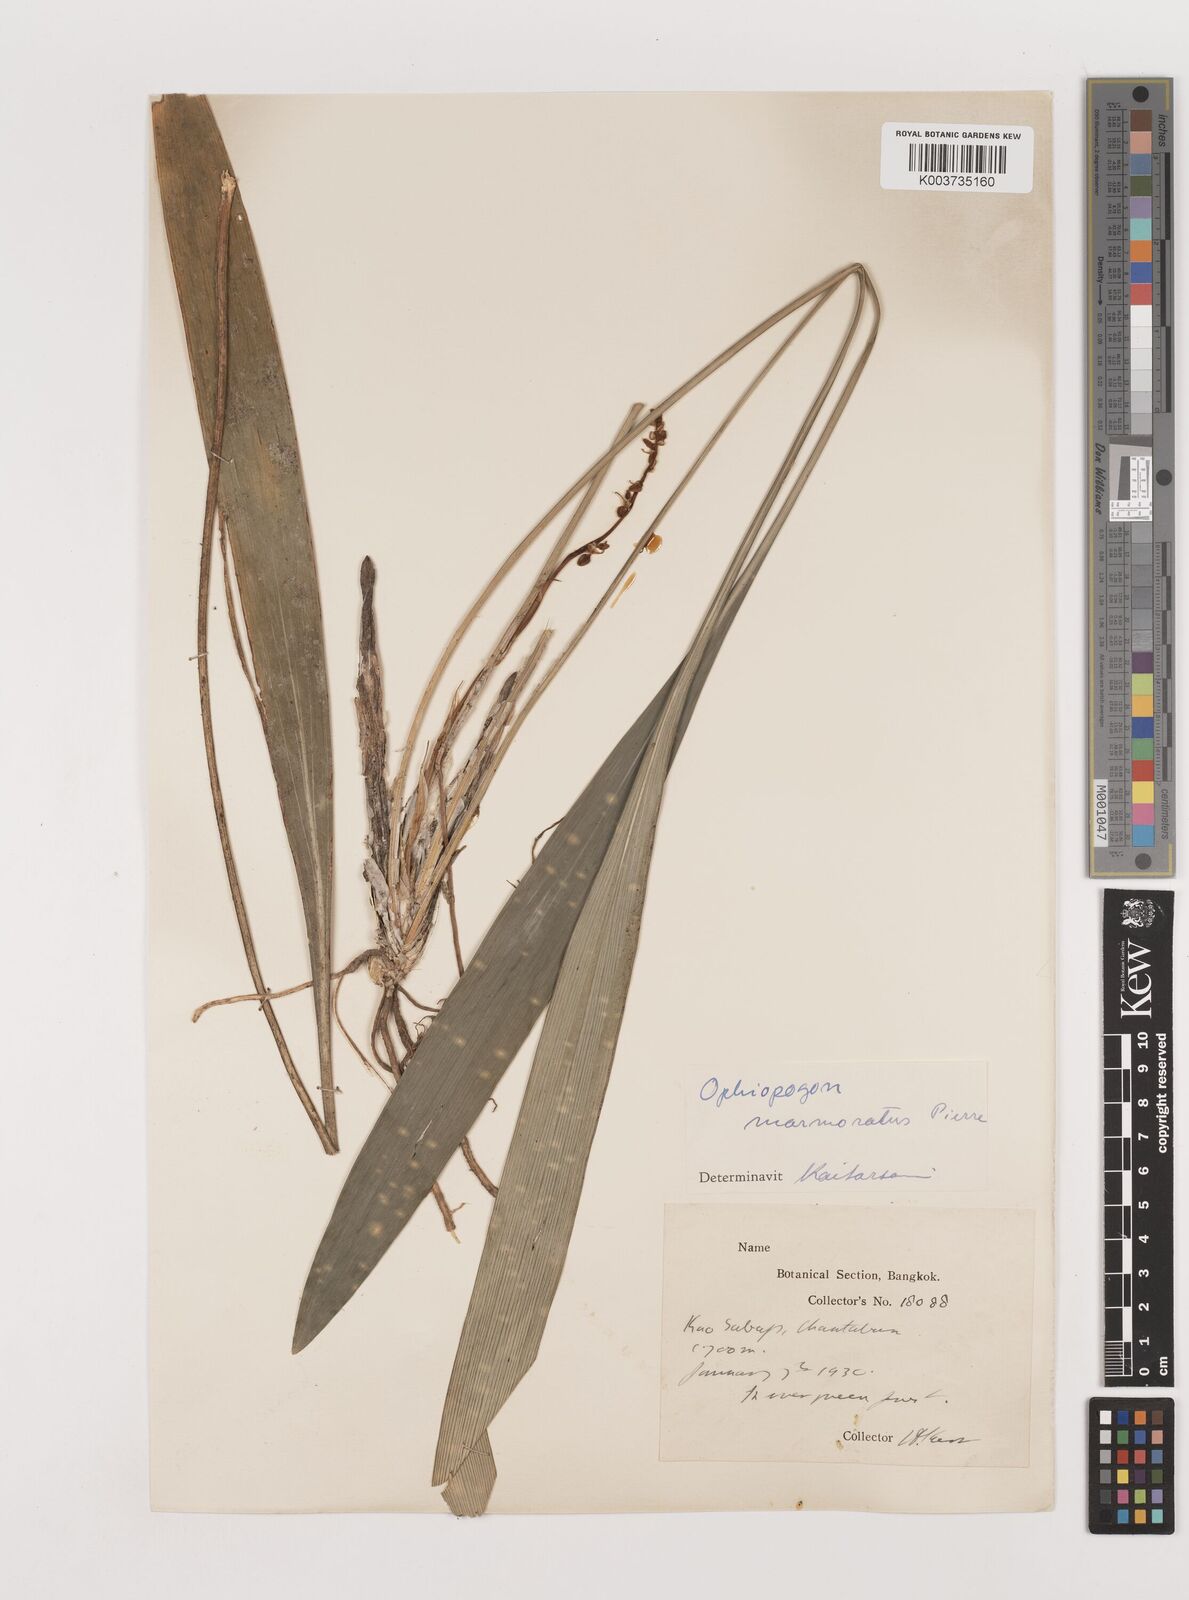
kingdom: Plantae
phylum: Tracheophyta
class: Liliopsida
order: Asparagales
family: Asparagaceae
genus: Ophiopogon
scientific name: Ophiopogon marmoratus
